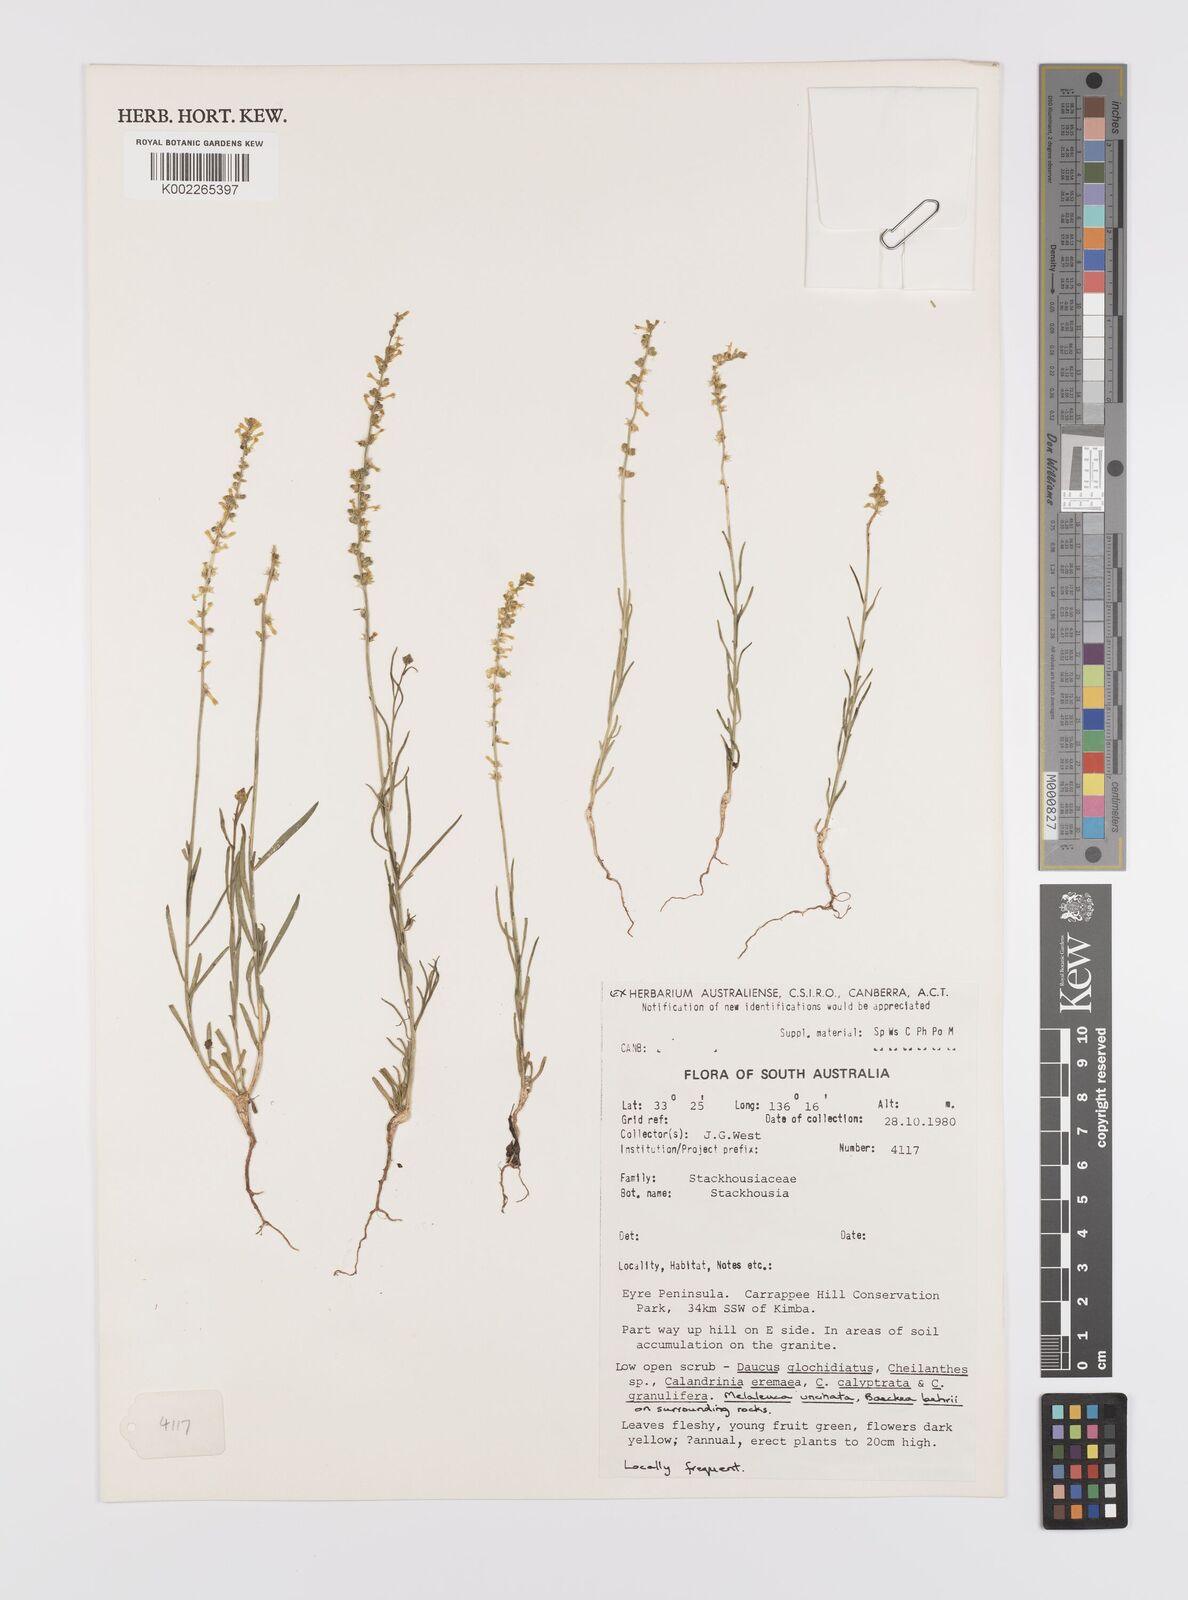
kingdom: Plantae
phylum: Tracheophyta
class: Magnoliopsida
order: Celastrales
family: Celastraceae
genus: Stackhousia
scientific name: Stackhousia
